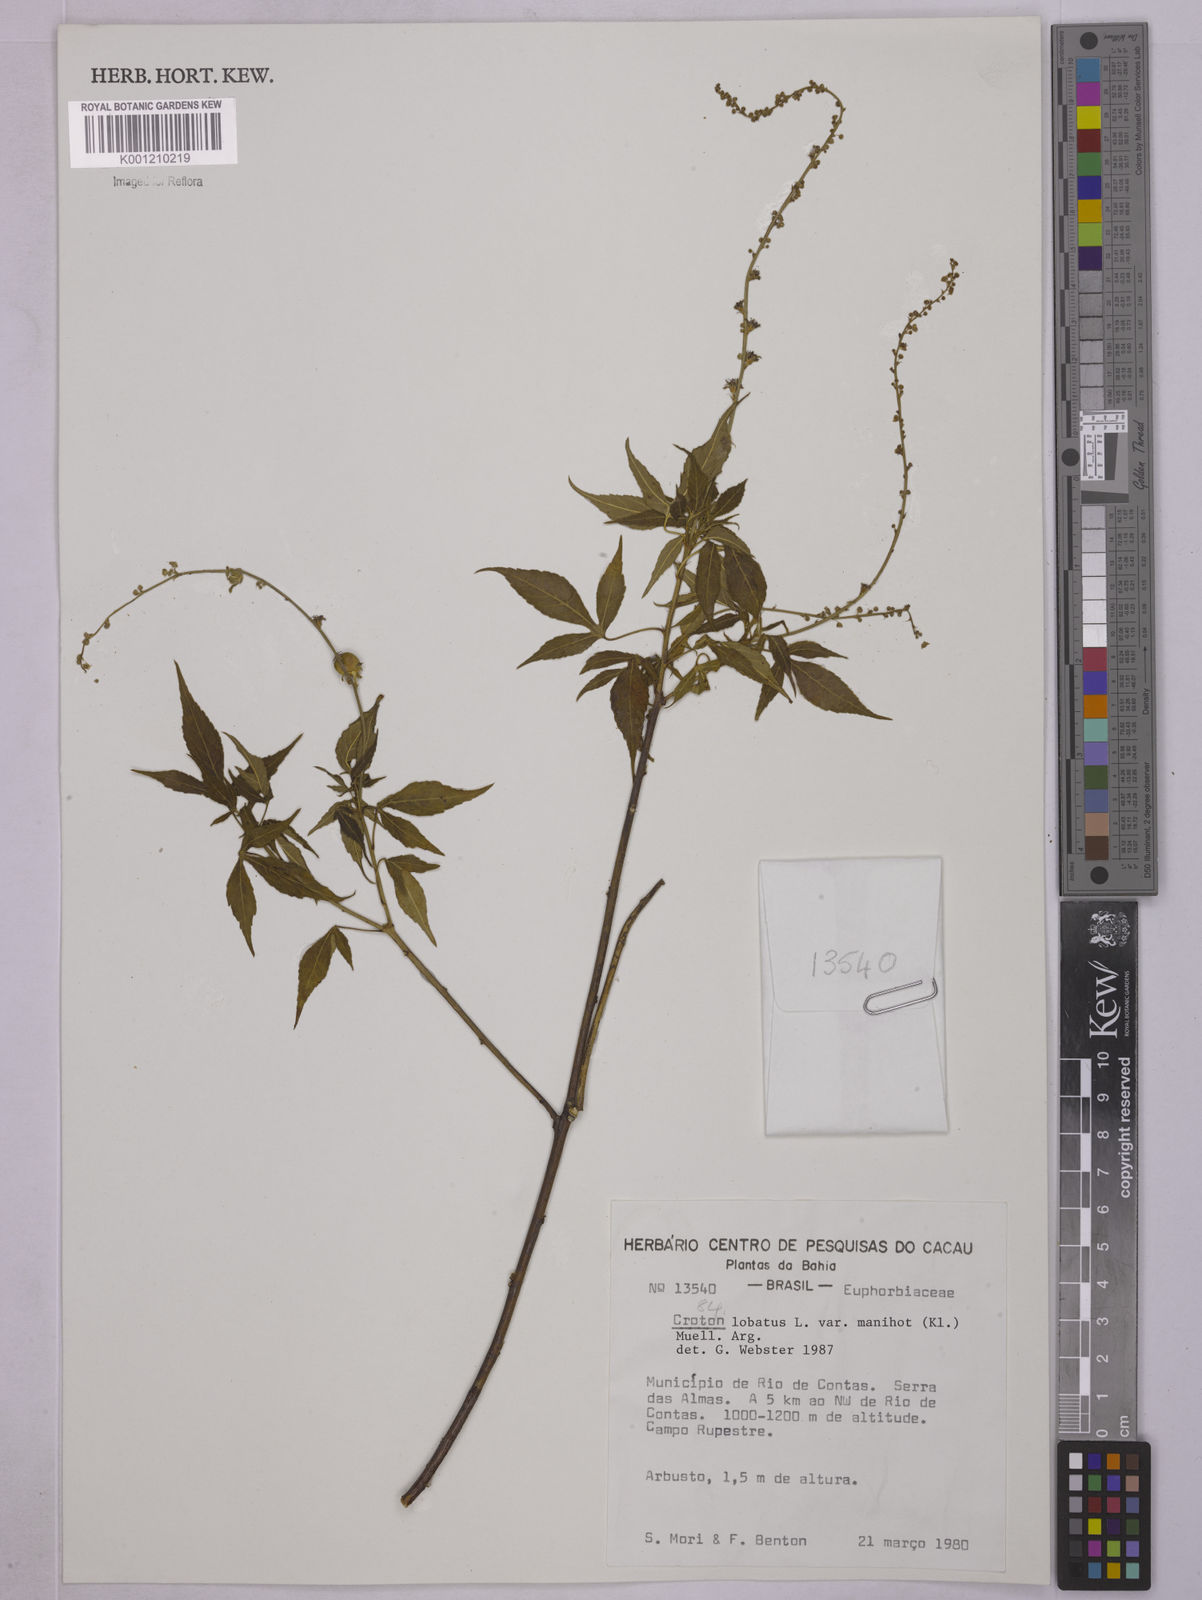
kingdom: Plantae
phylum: Tracheophyta
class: Magnoliopsida
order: Malpighiales
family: Euphorbiaceae
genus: Astraea
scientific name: Astraea lobata
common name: Lobed croton
